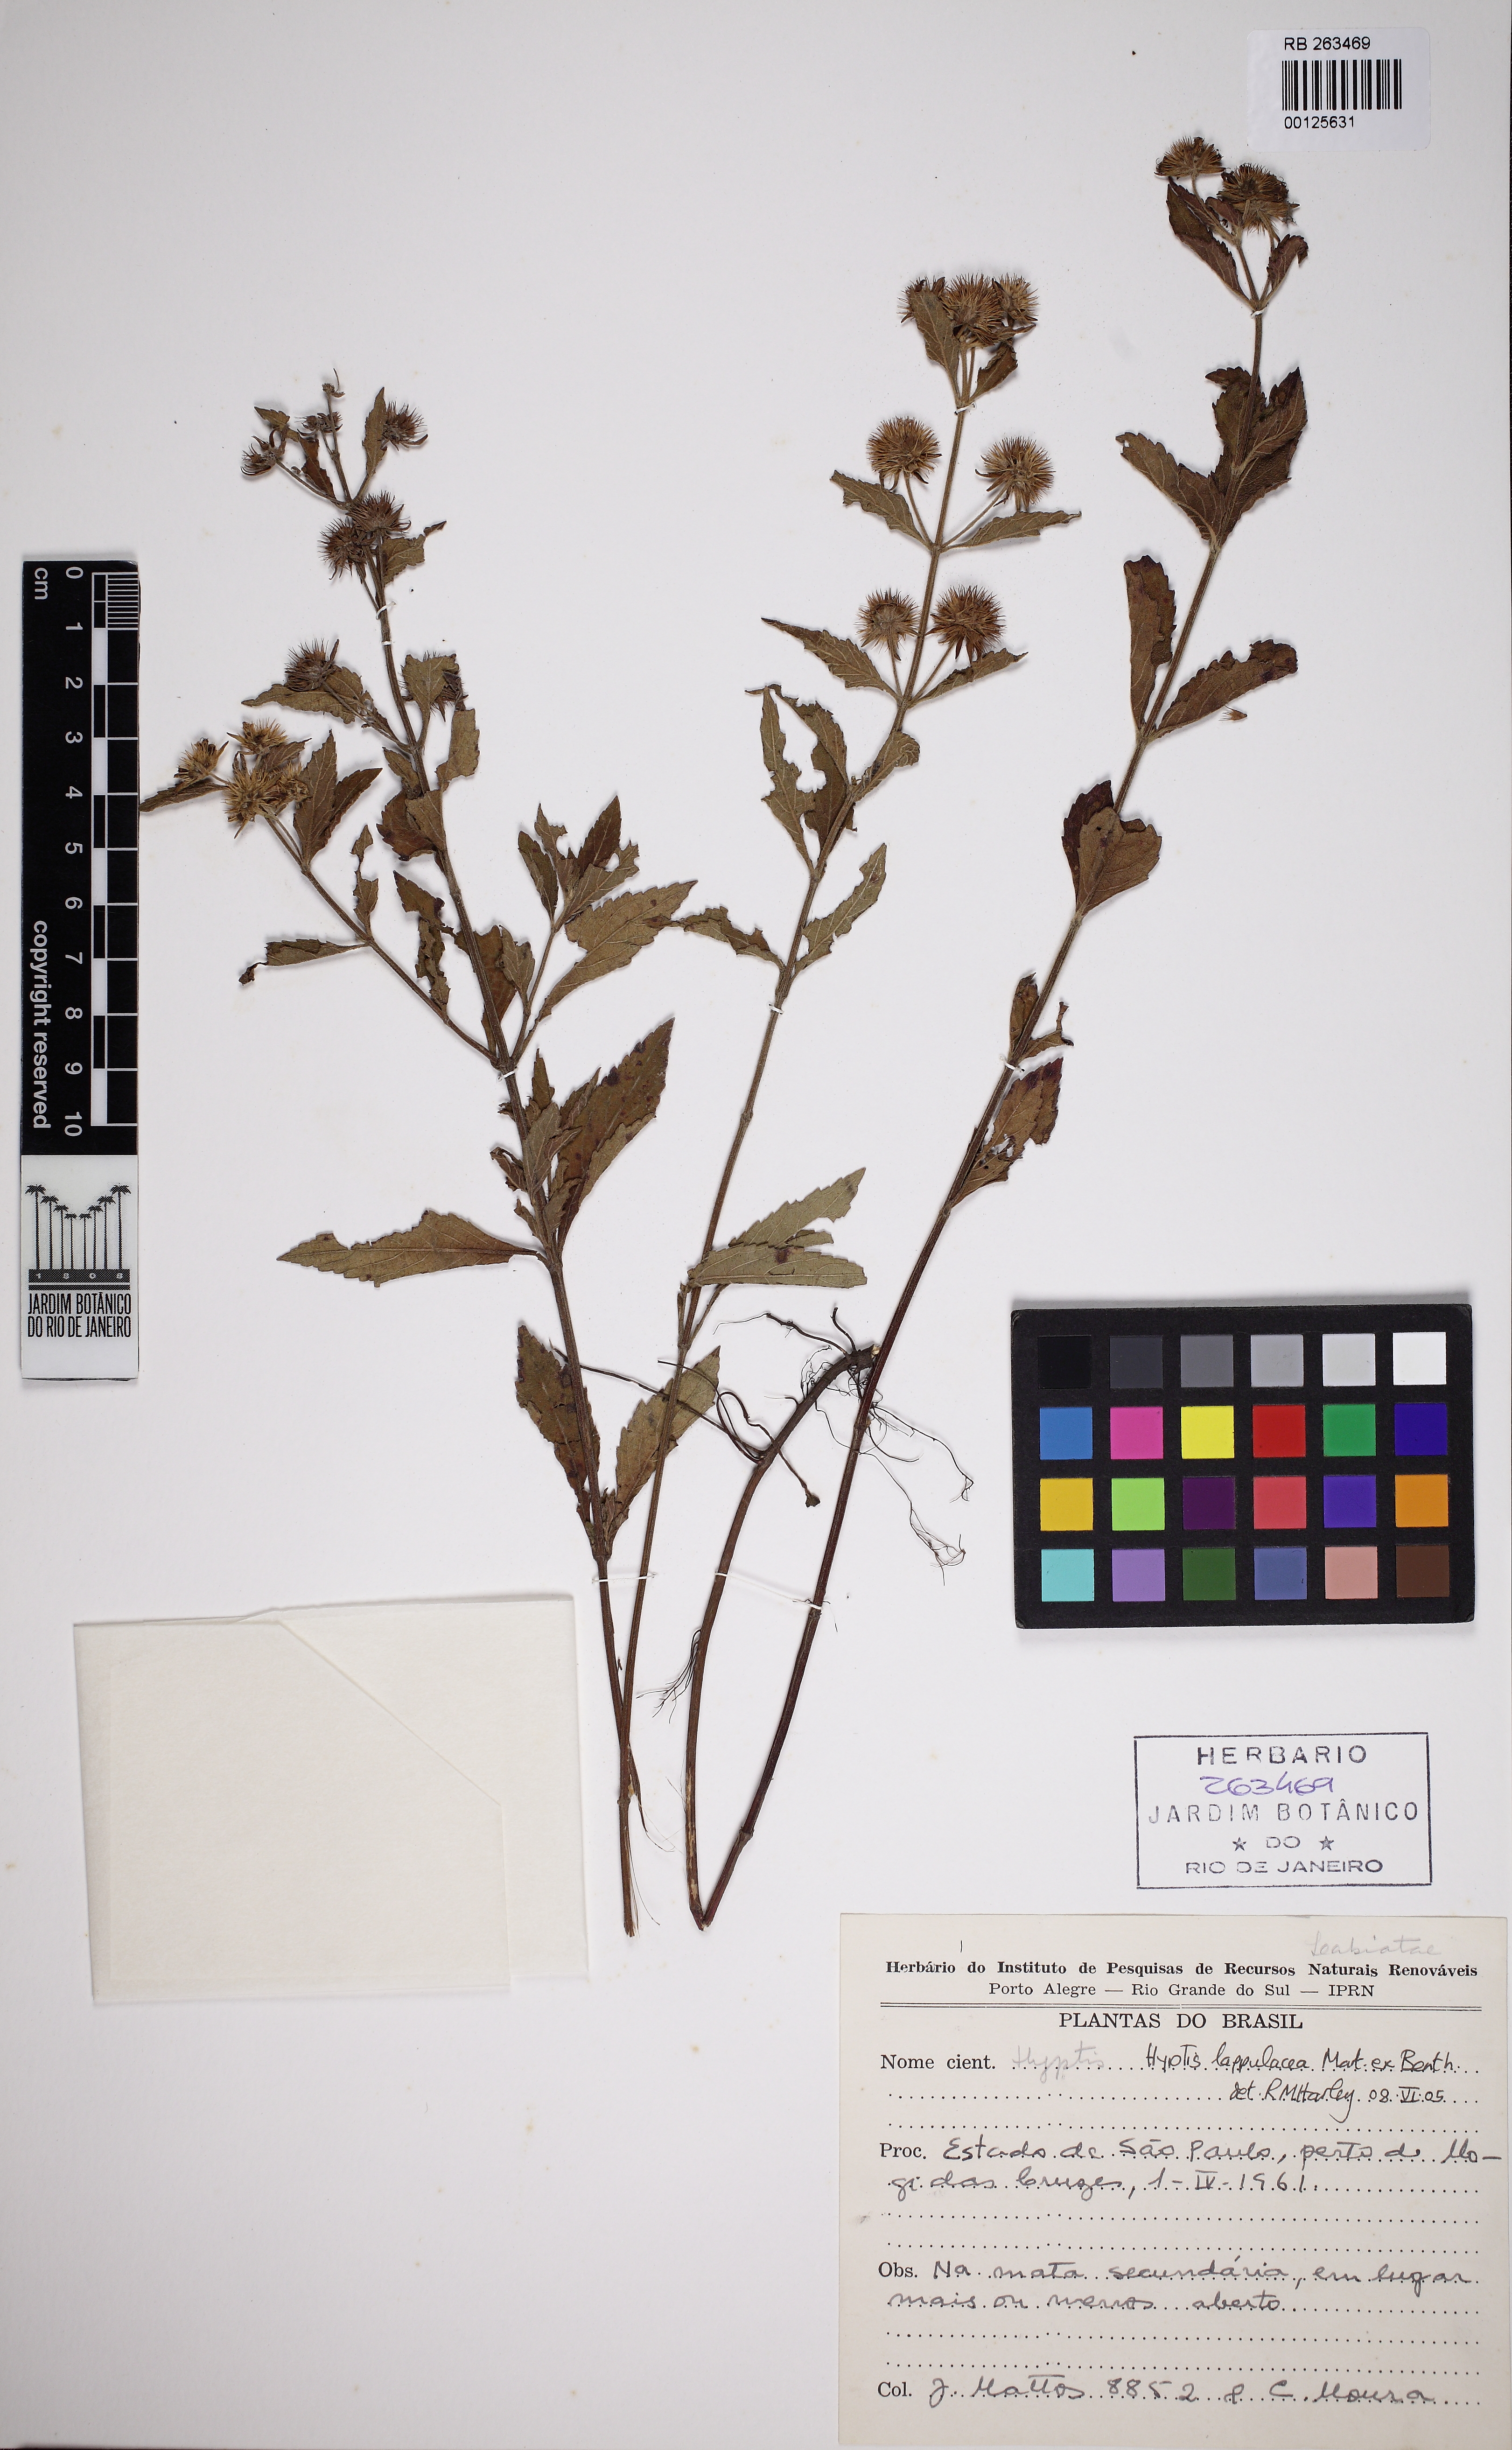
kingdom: Plantae
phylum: Tracheophyta
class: Magnoliopsida
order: Lamiales
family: Lamiaceae
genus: Hyptis
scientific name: Hyptis lappulacea
